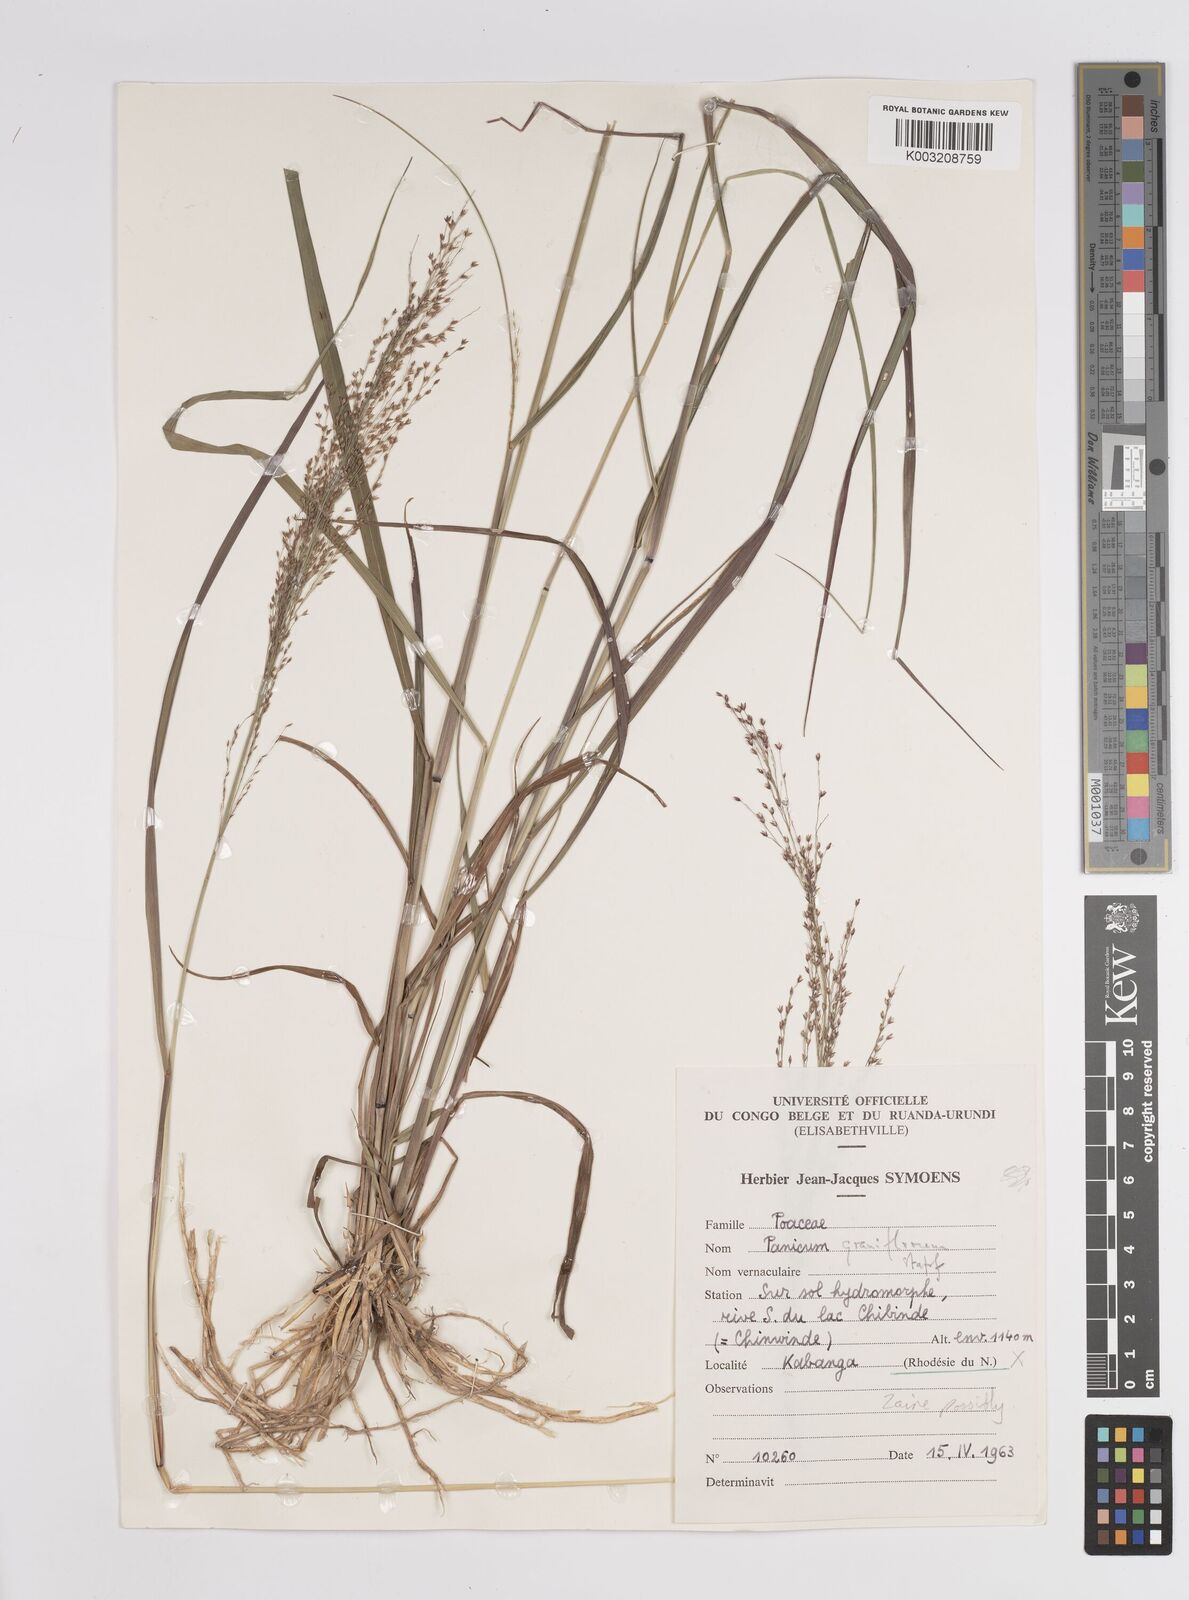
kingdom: Plantae
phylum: Tracheophyta
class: Liliopsida
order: Poales
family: Poaceae
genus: Panicum
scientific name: Panicum fluviicola
